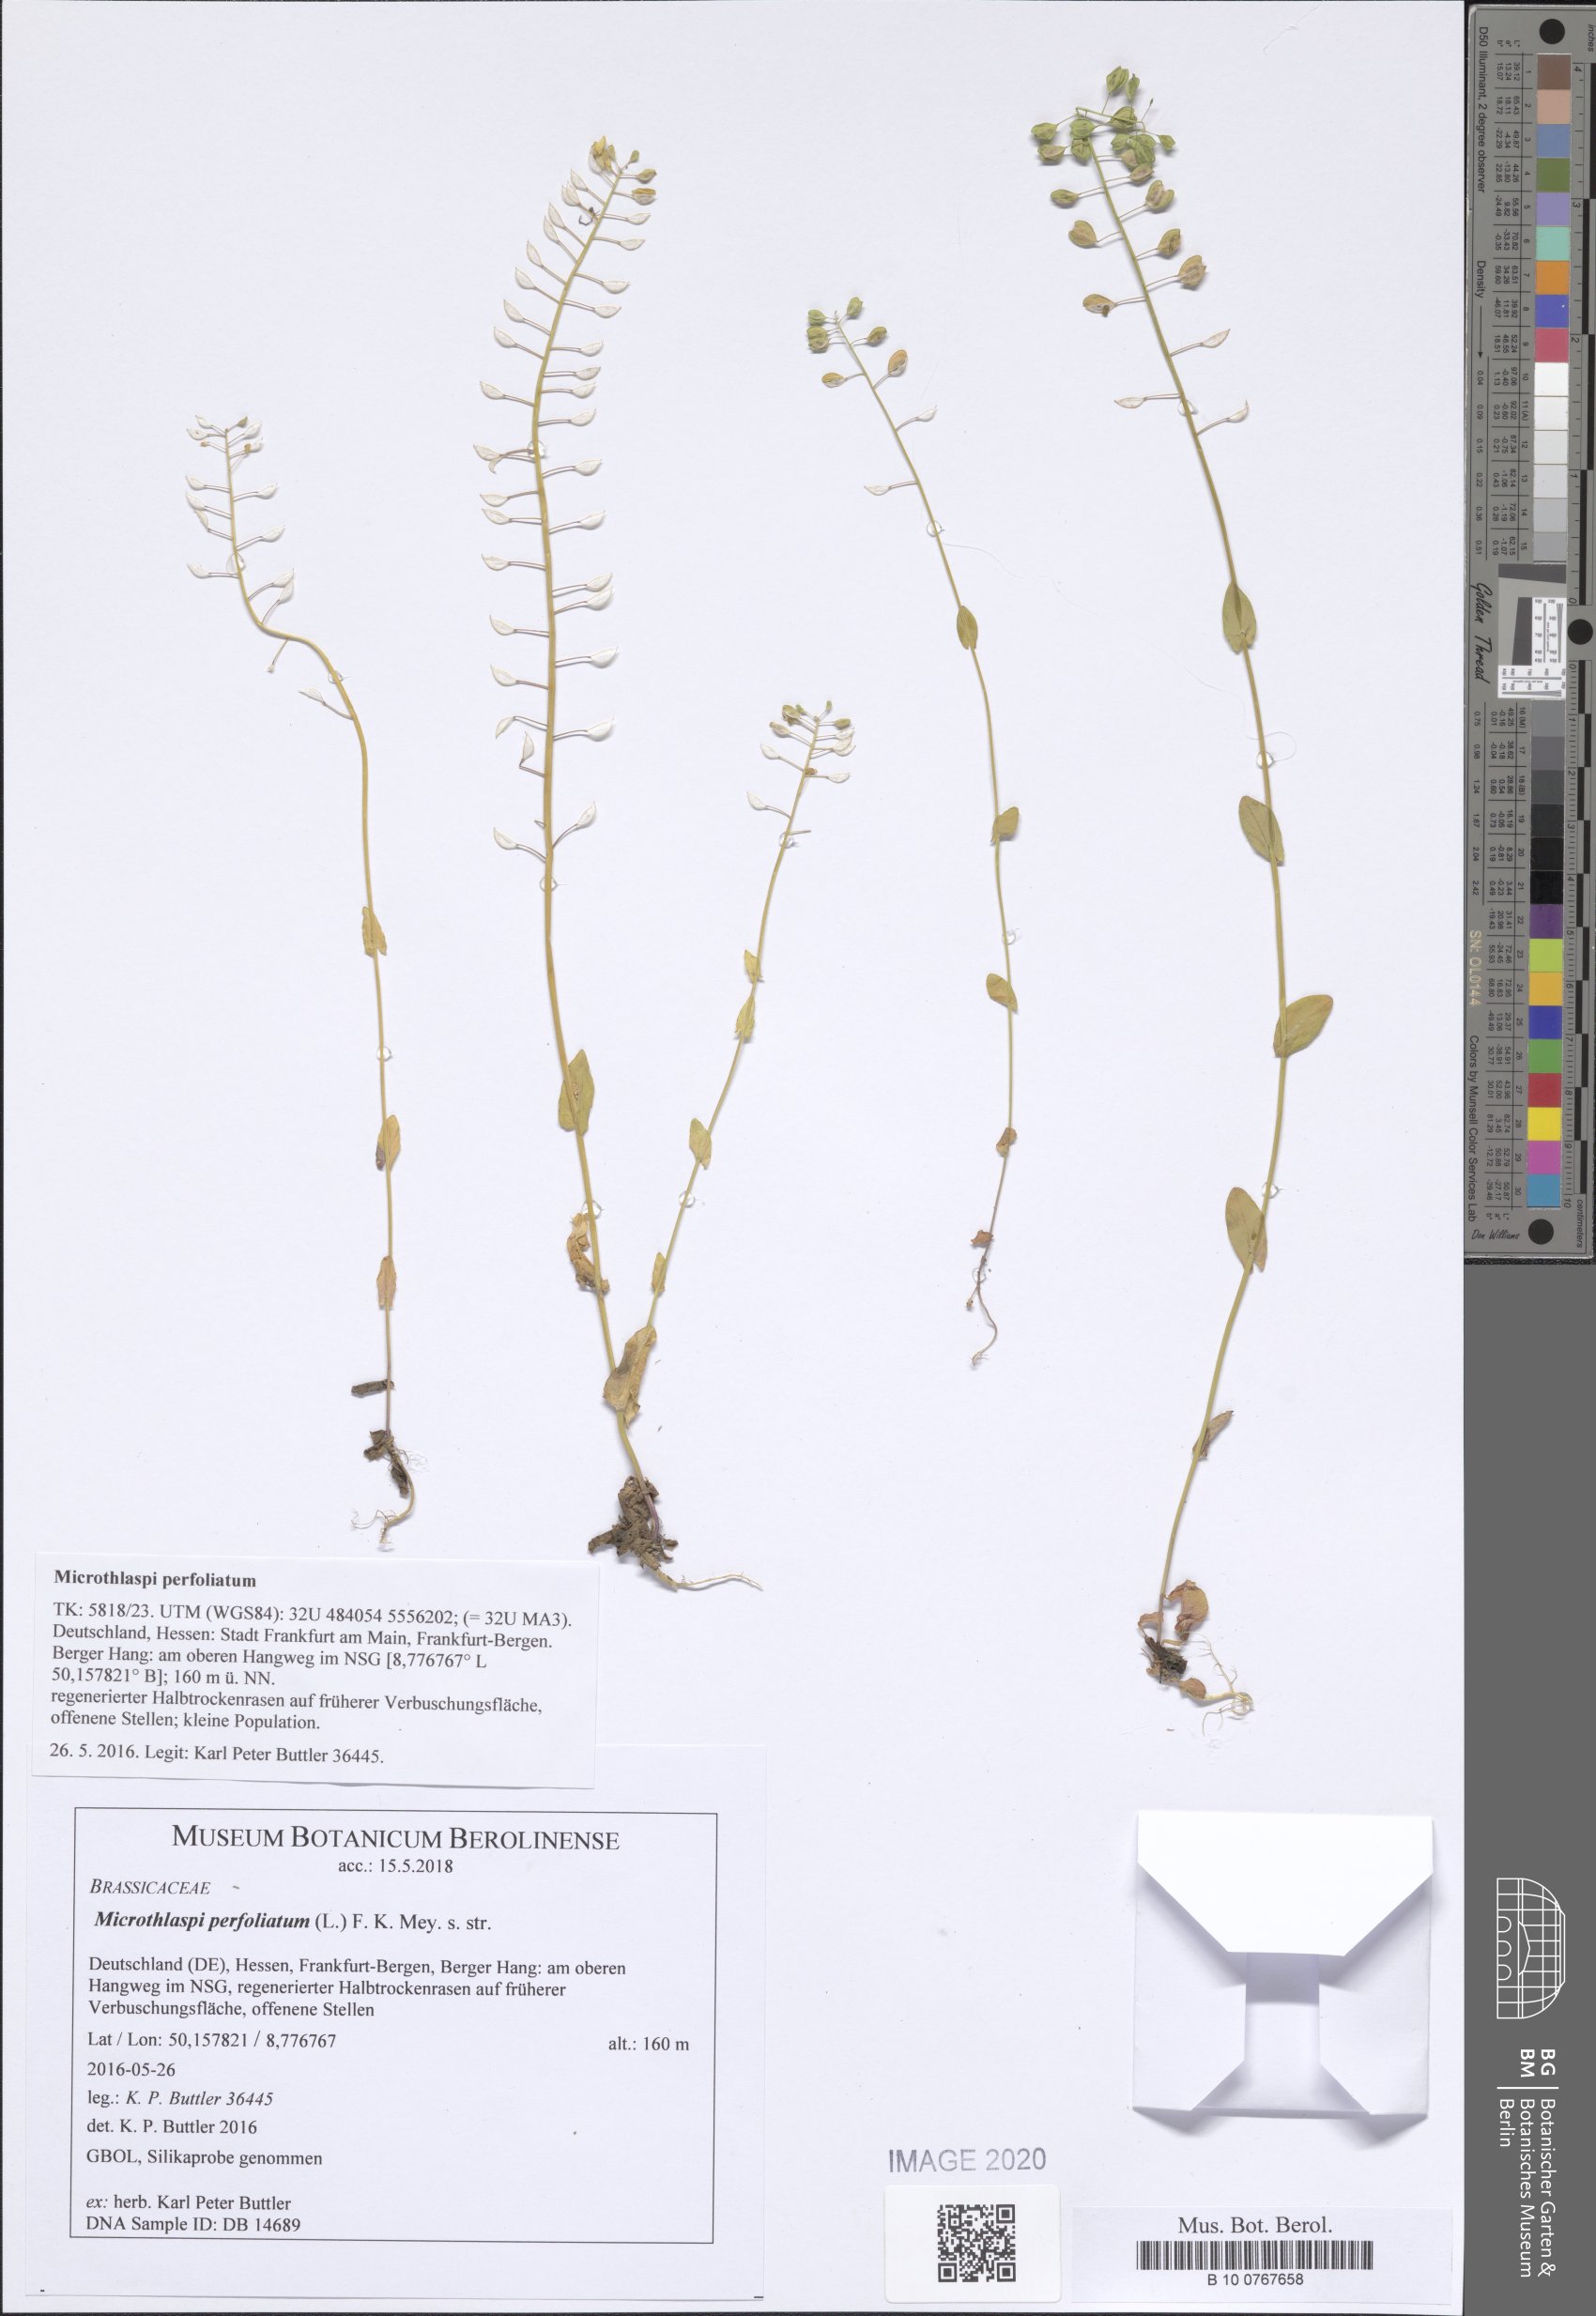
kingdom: Plantae
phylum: Tracheophyta
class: Magnoliopsida
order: Brassicales
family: Brassicaceae
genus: Noccaea
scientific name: Noccaea perfoliata
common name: Perfoliate pennycress
